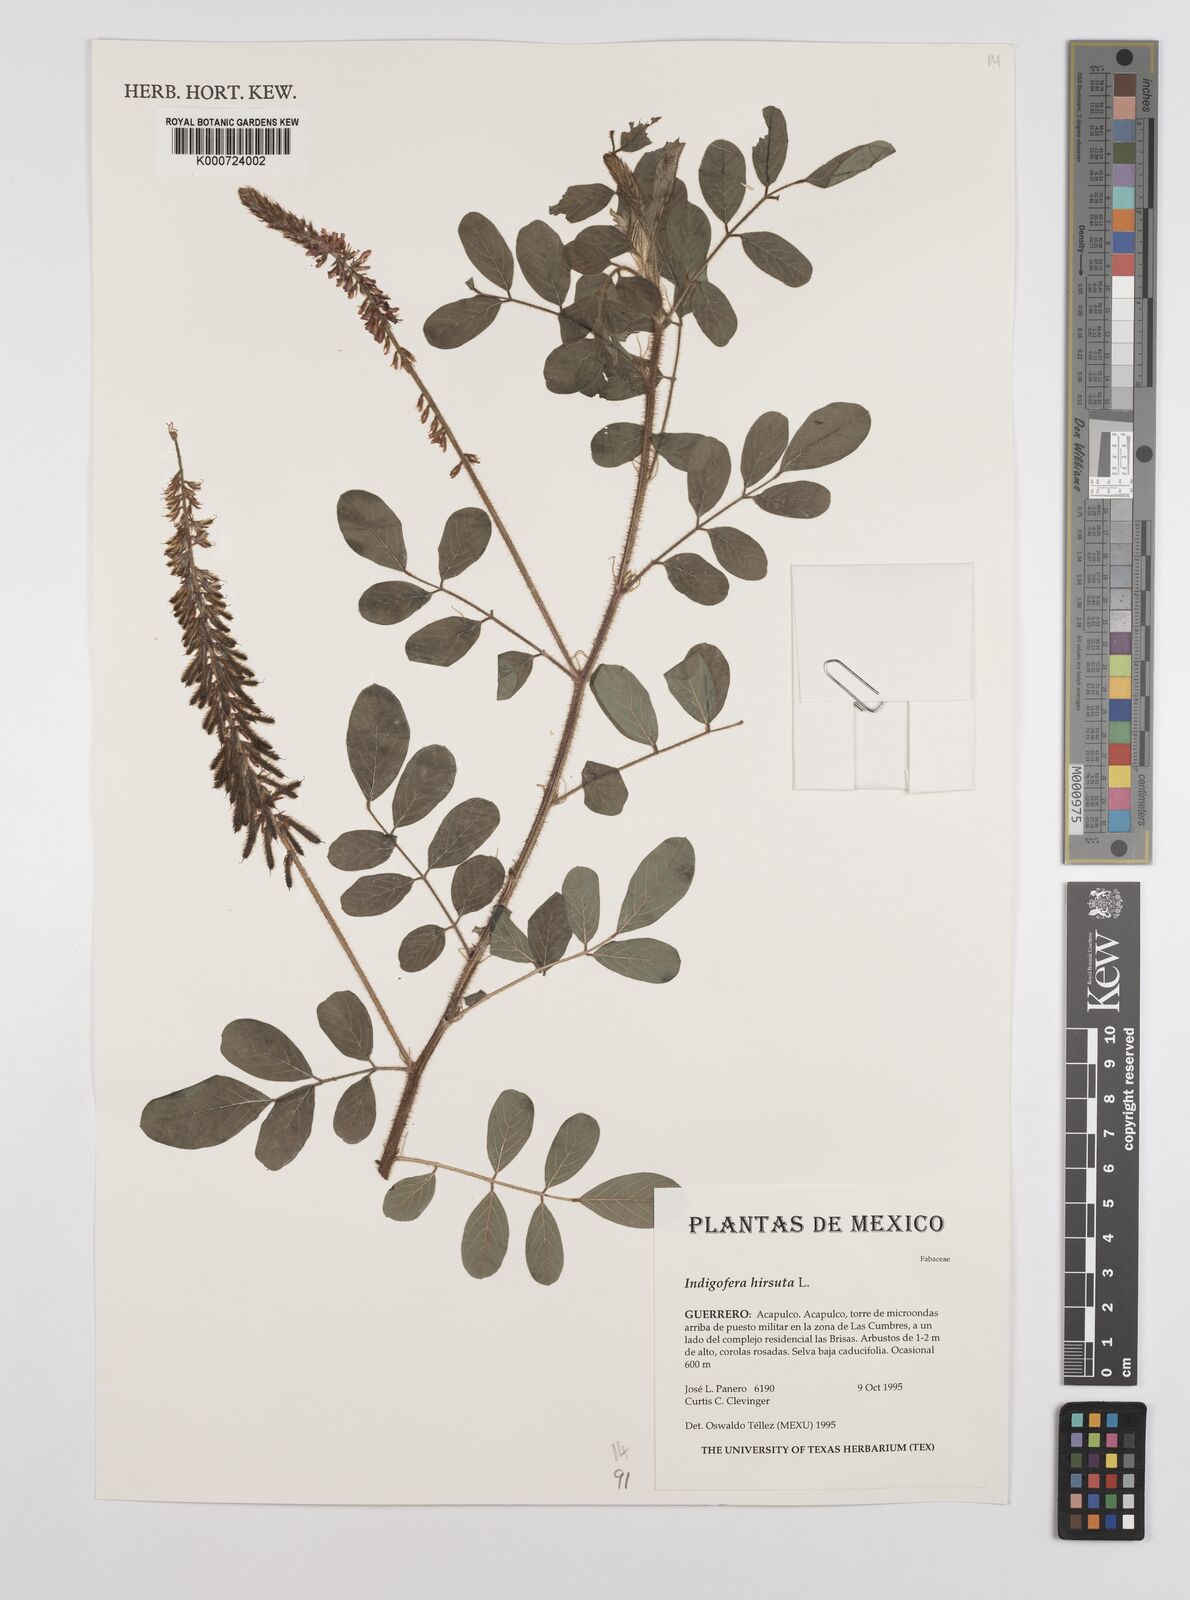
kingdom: Plantae
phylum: Tracheophyta
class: Magnoliopsida
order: Fabales
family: Fabaceae
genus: Indigofera
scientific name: Indigofera hirsuta
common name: Hairy indigo
